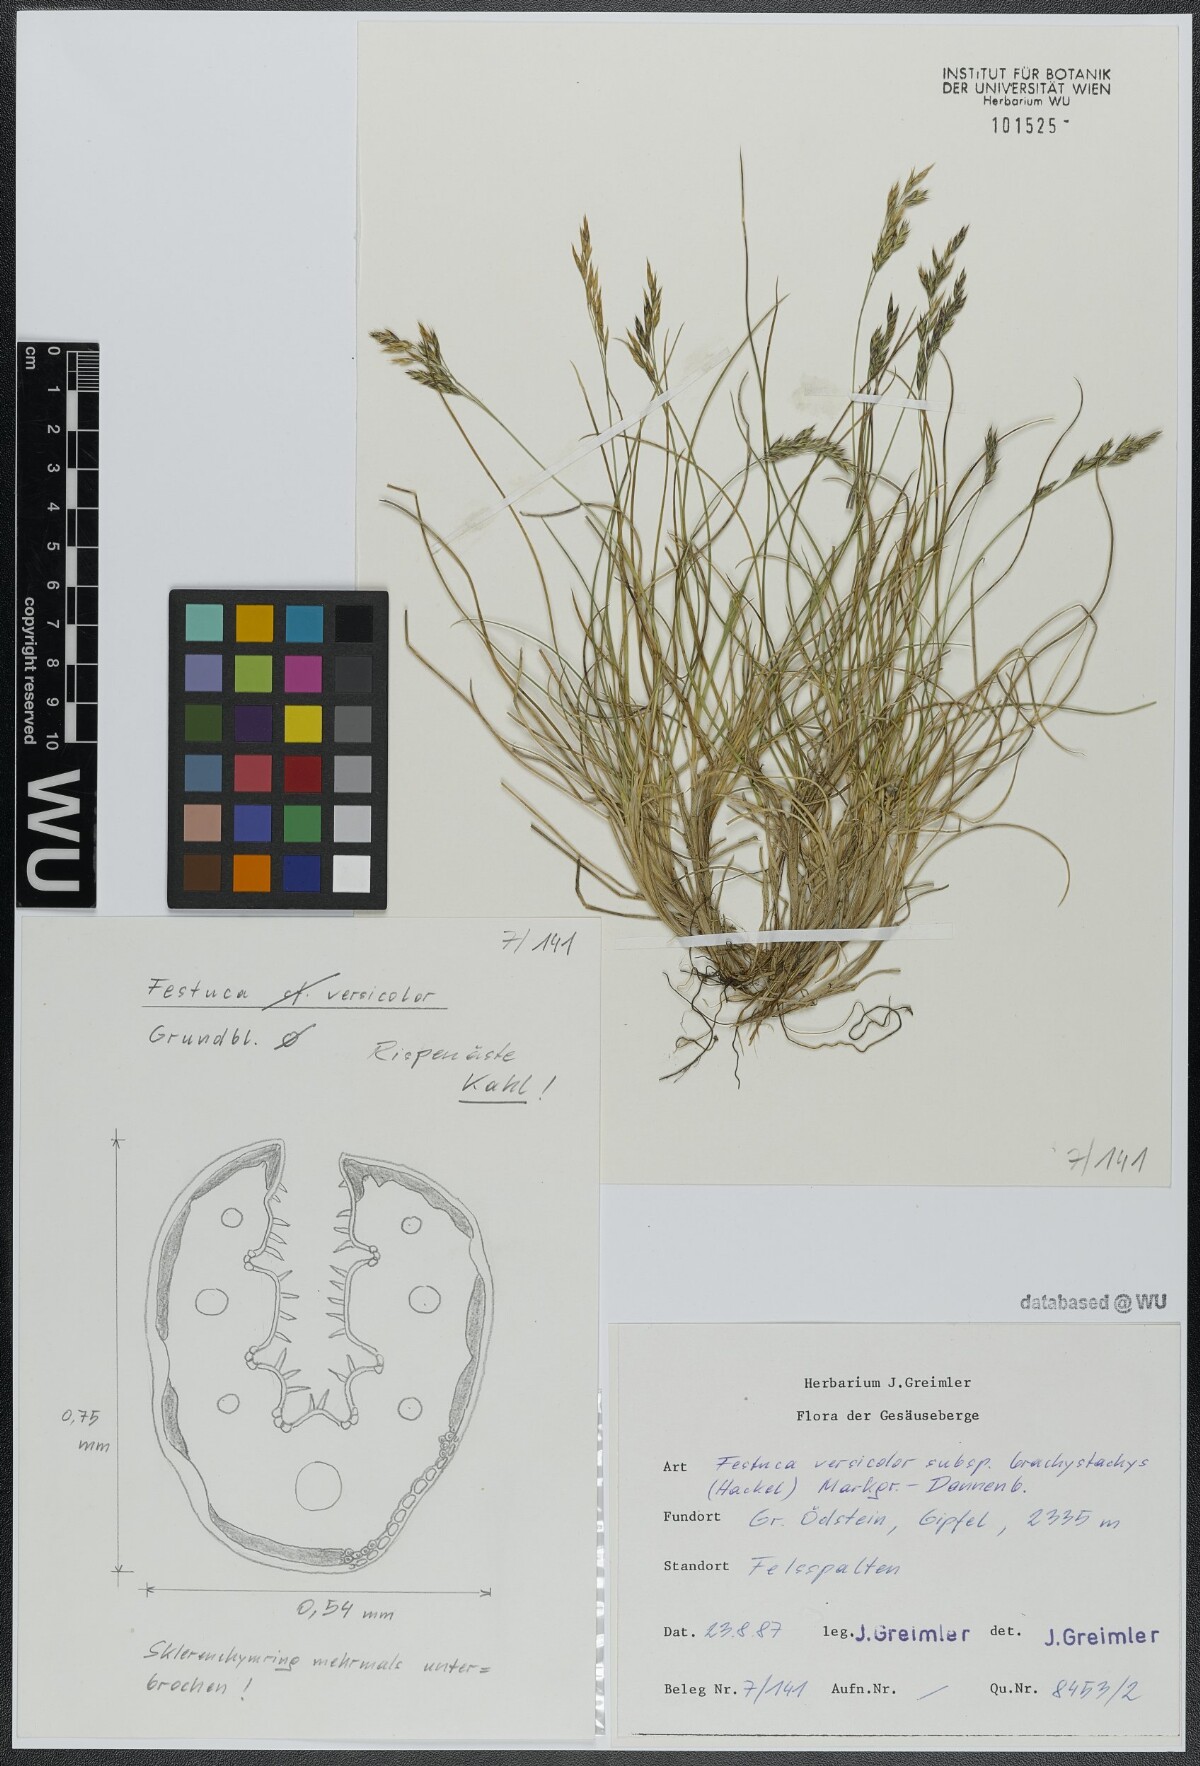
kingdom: Plantae
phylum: Tracheophyta
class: Liliopsida
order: Poales
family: Poaceae
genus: Festuca
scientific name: Festuca varia
